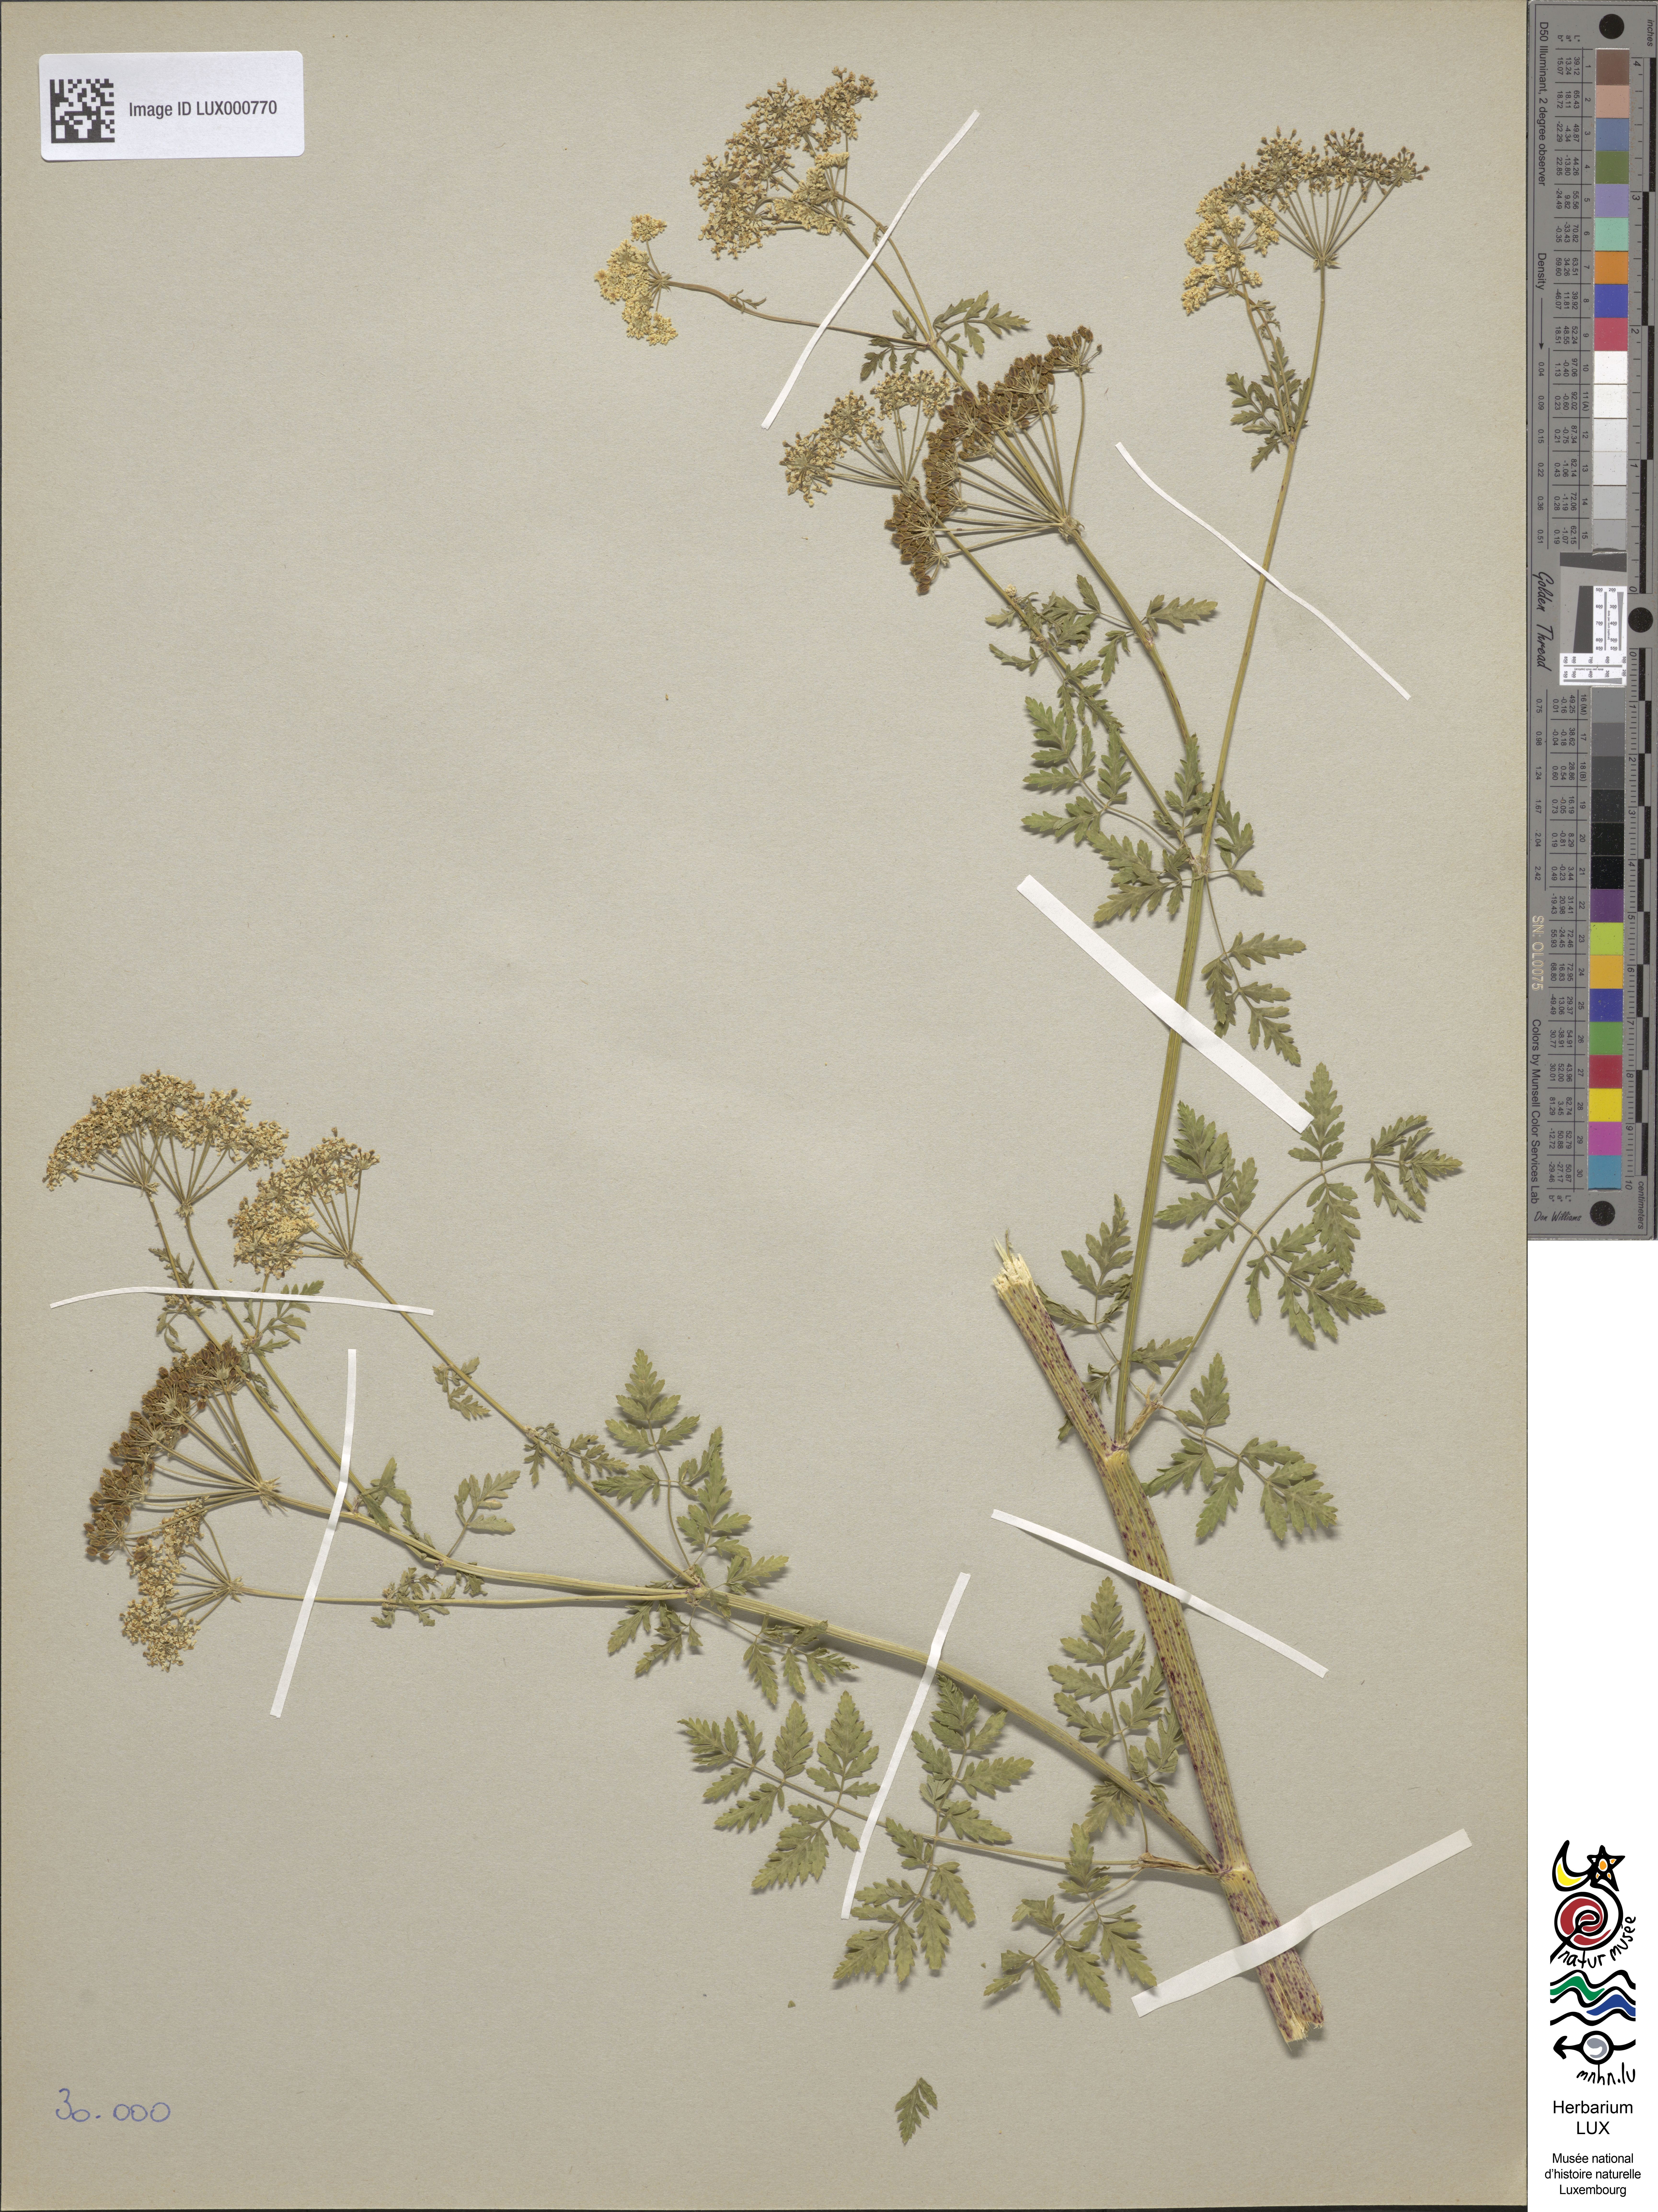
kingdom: Plantae
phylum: Tracheophyta
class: Magnoliopsida
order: Apiales
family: Apiaceae
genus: Conium
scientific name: Conium maculatum
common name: Hemlock
